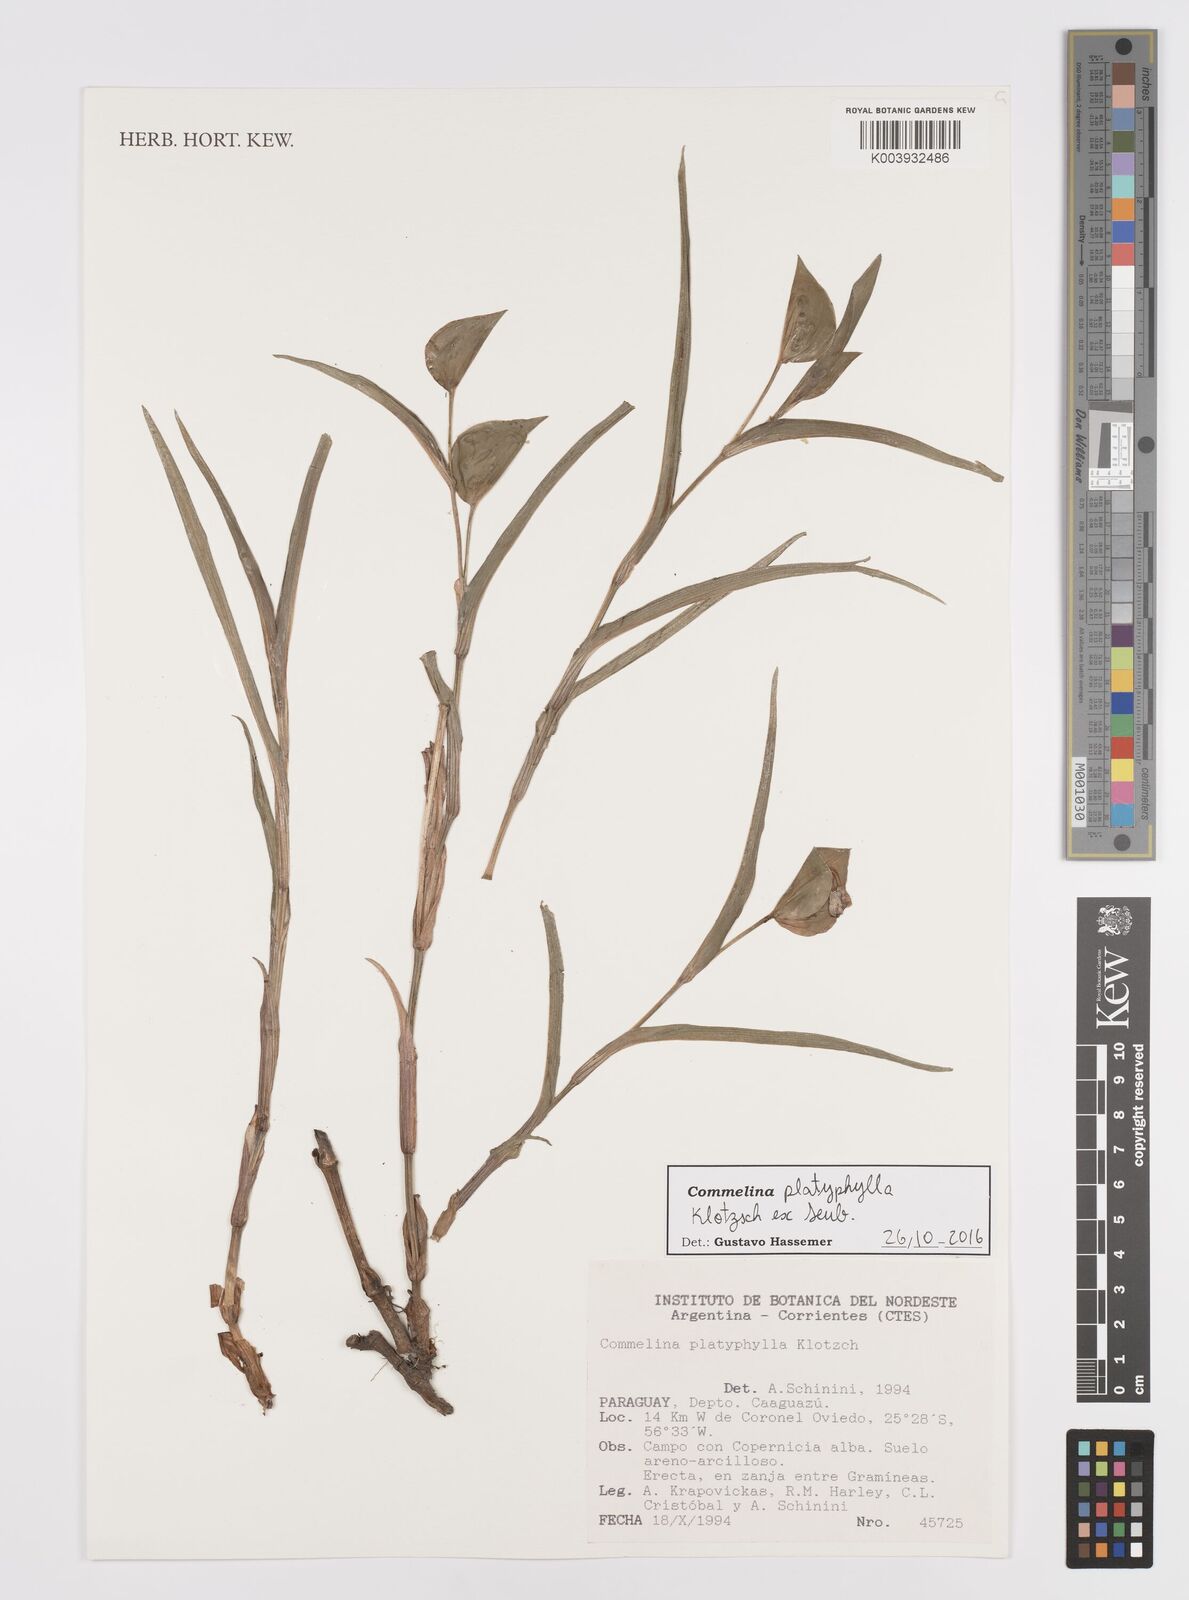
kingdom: Plantae
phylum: Tracheophyta
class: Liliopsida
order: Commelinales
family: Commelinaceae
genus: Commelina
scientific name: Commelina platyphylla
